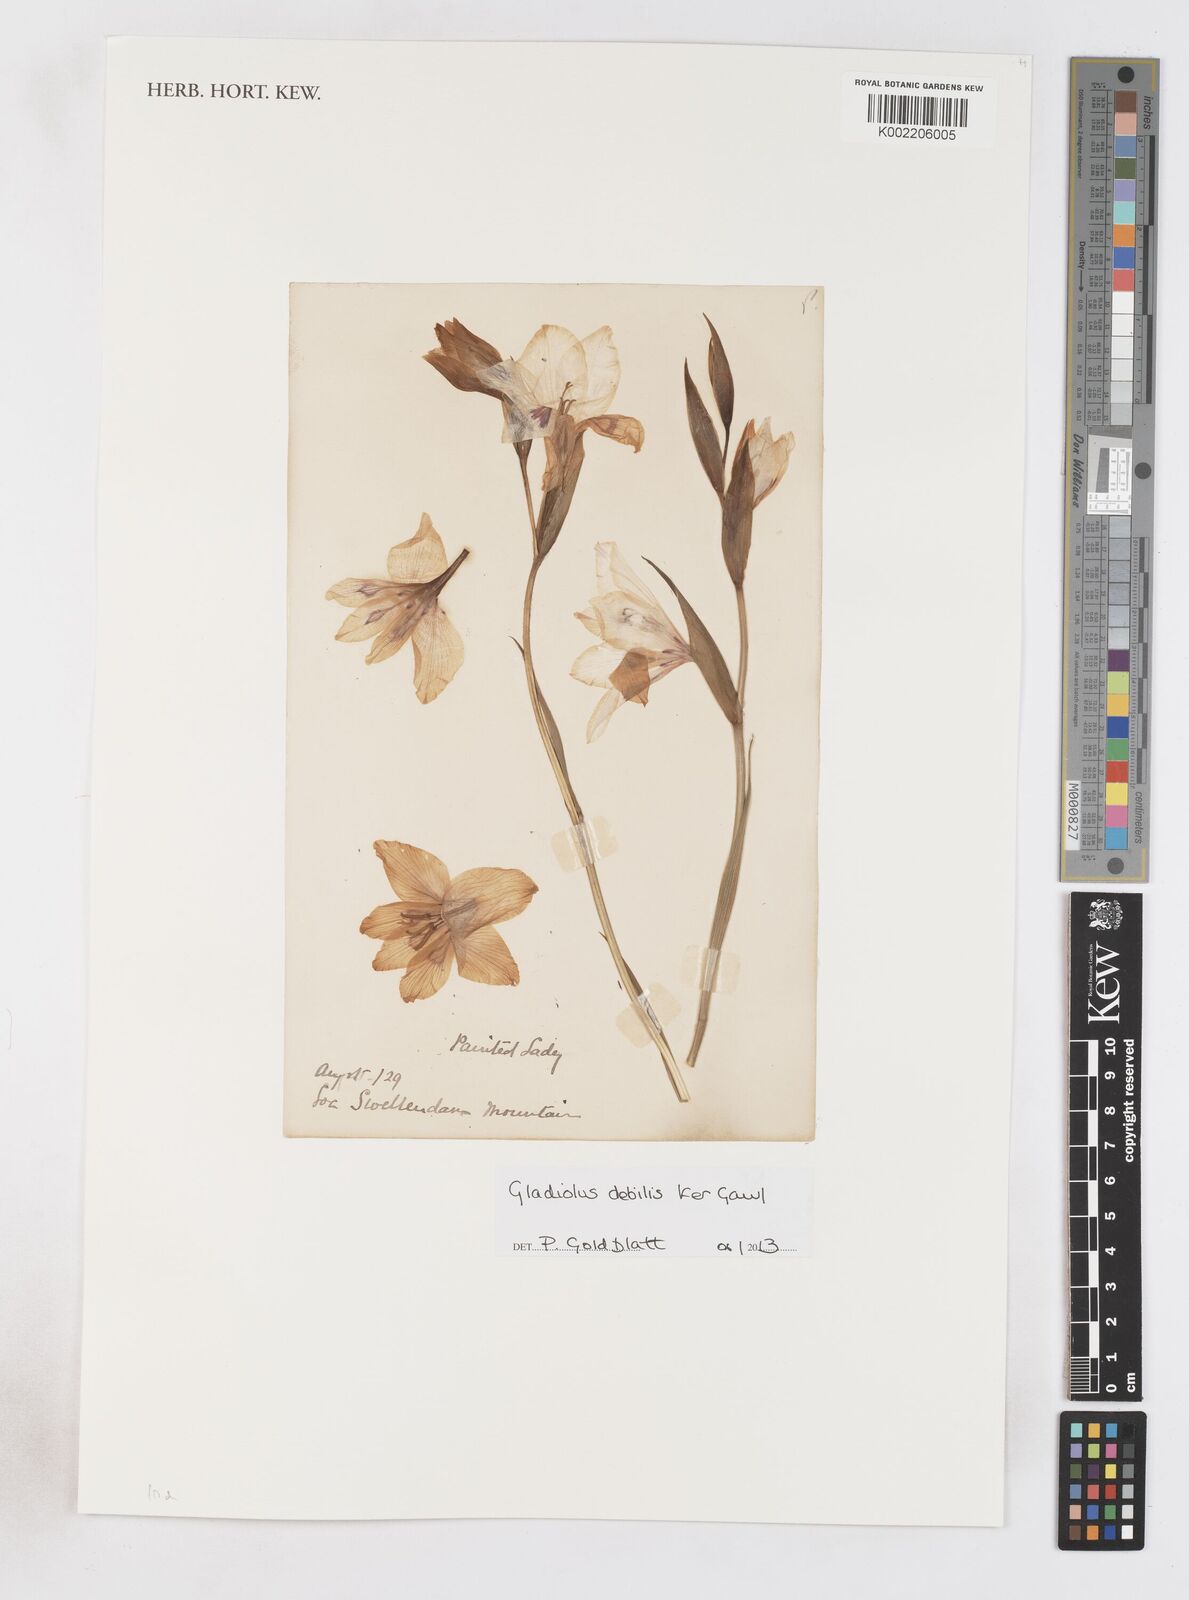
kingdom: Plantae
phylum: Tracheophyta
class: Liliopsida
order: Asparagales
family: Iridaceae
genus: Gladiolus
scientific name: Gladiolus debilis
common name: Painted-lady
